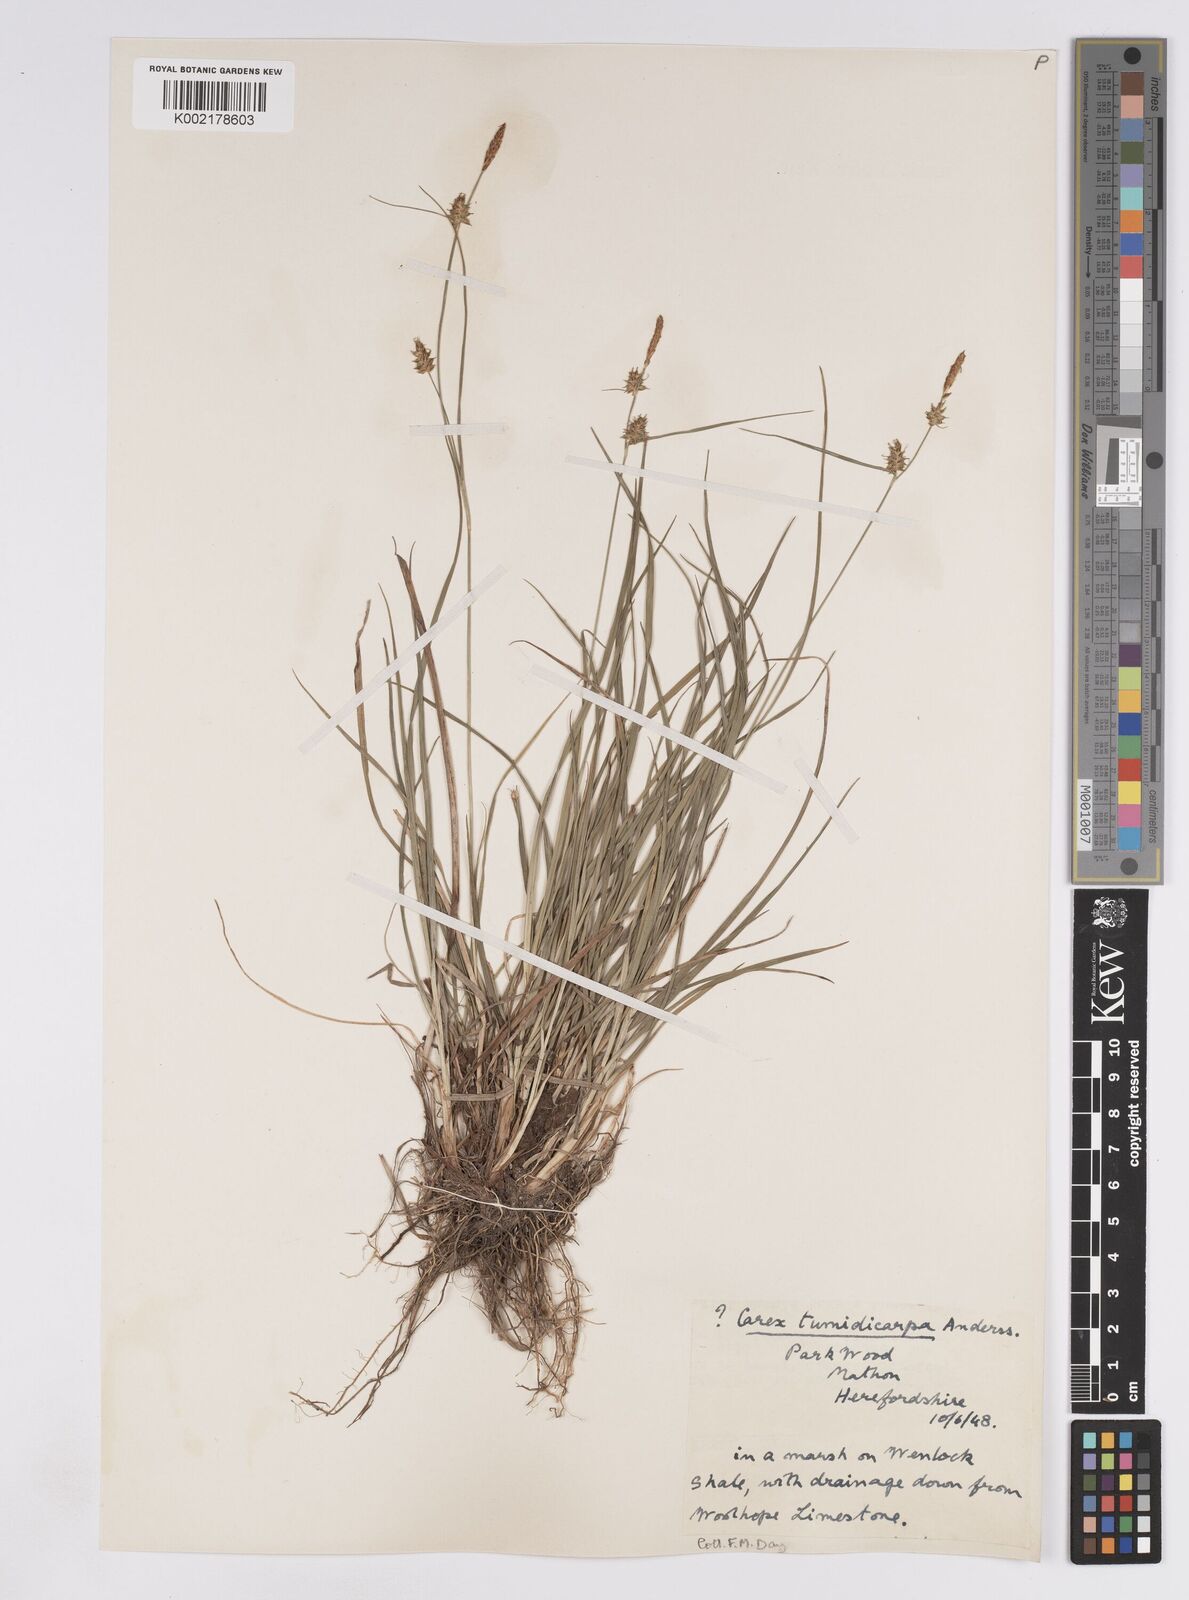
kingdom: Plantae
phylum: Tracheophyta
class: Liliopsida
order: Poales
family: Cyperaceae
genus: Carex
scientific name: Carex lepidocarpa
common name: Long-stalked yellow-sedge
